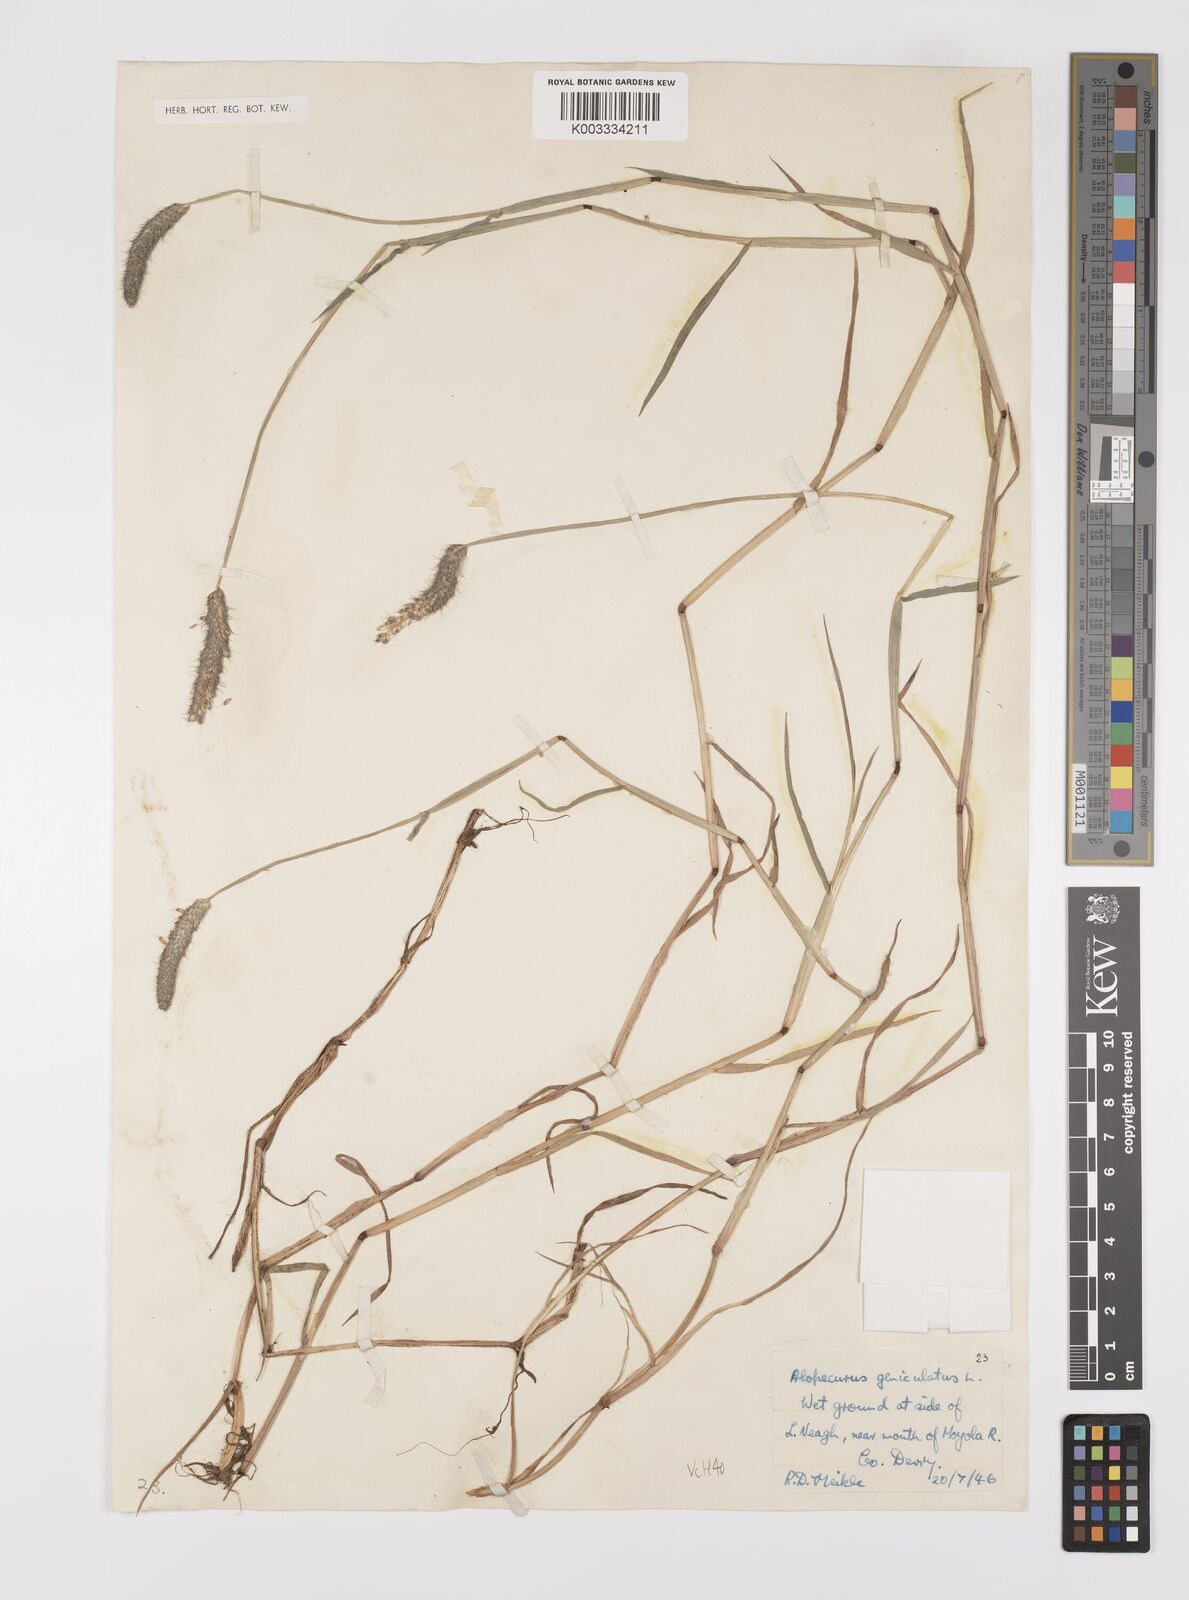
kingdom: Plantae
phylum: Tracheophyta
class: Liliopsida
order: Poales
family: Poaceae
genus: Alopecurus
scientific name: Alopecurus geniculatus
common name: Water foxtail
